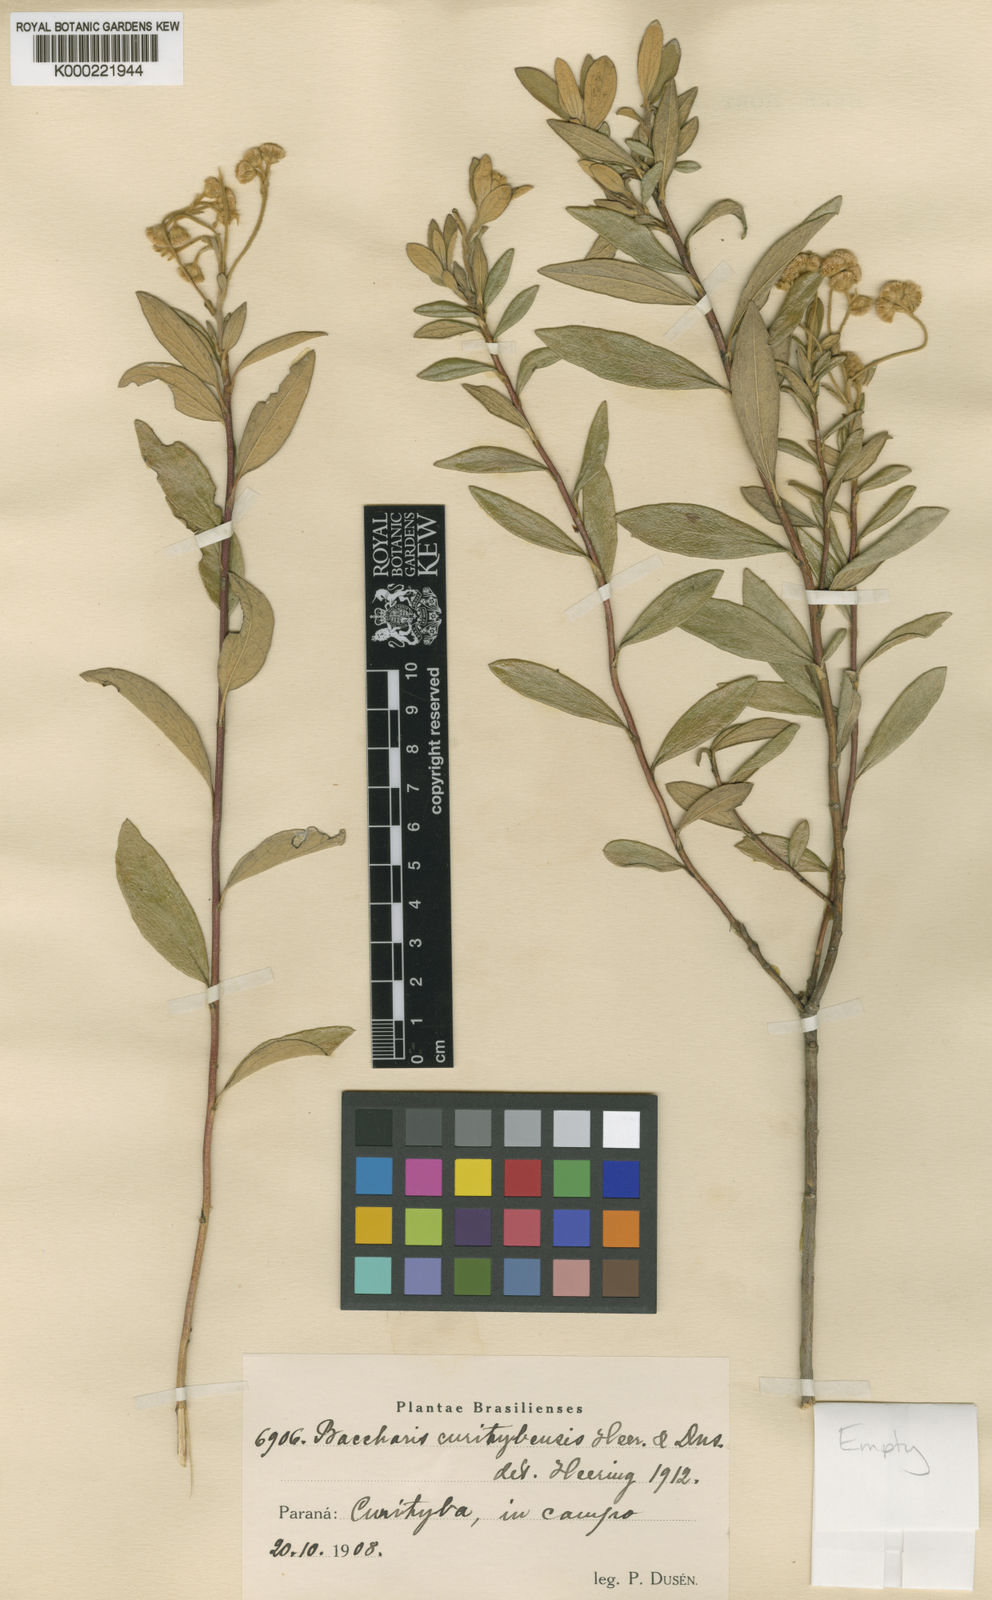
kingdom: Plantae
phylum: Tracheophyta
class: Magnoliopsida
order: Asterales
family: Asteraceae
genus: Baccharis
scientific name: Baccharis curitybensis
